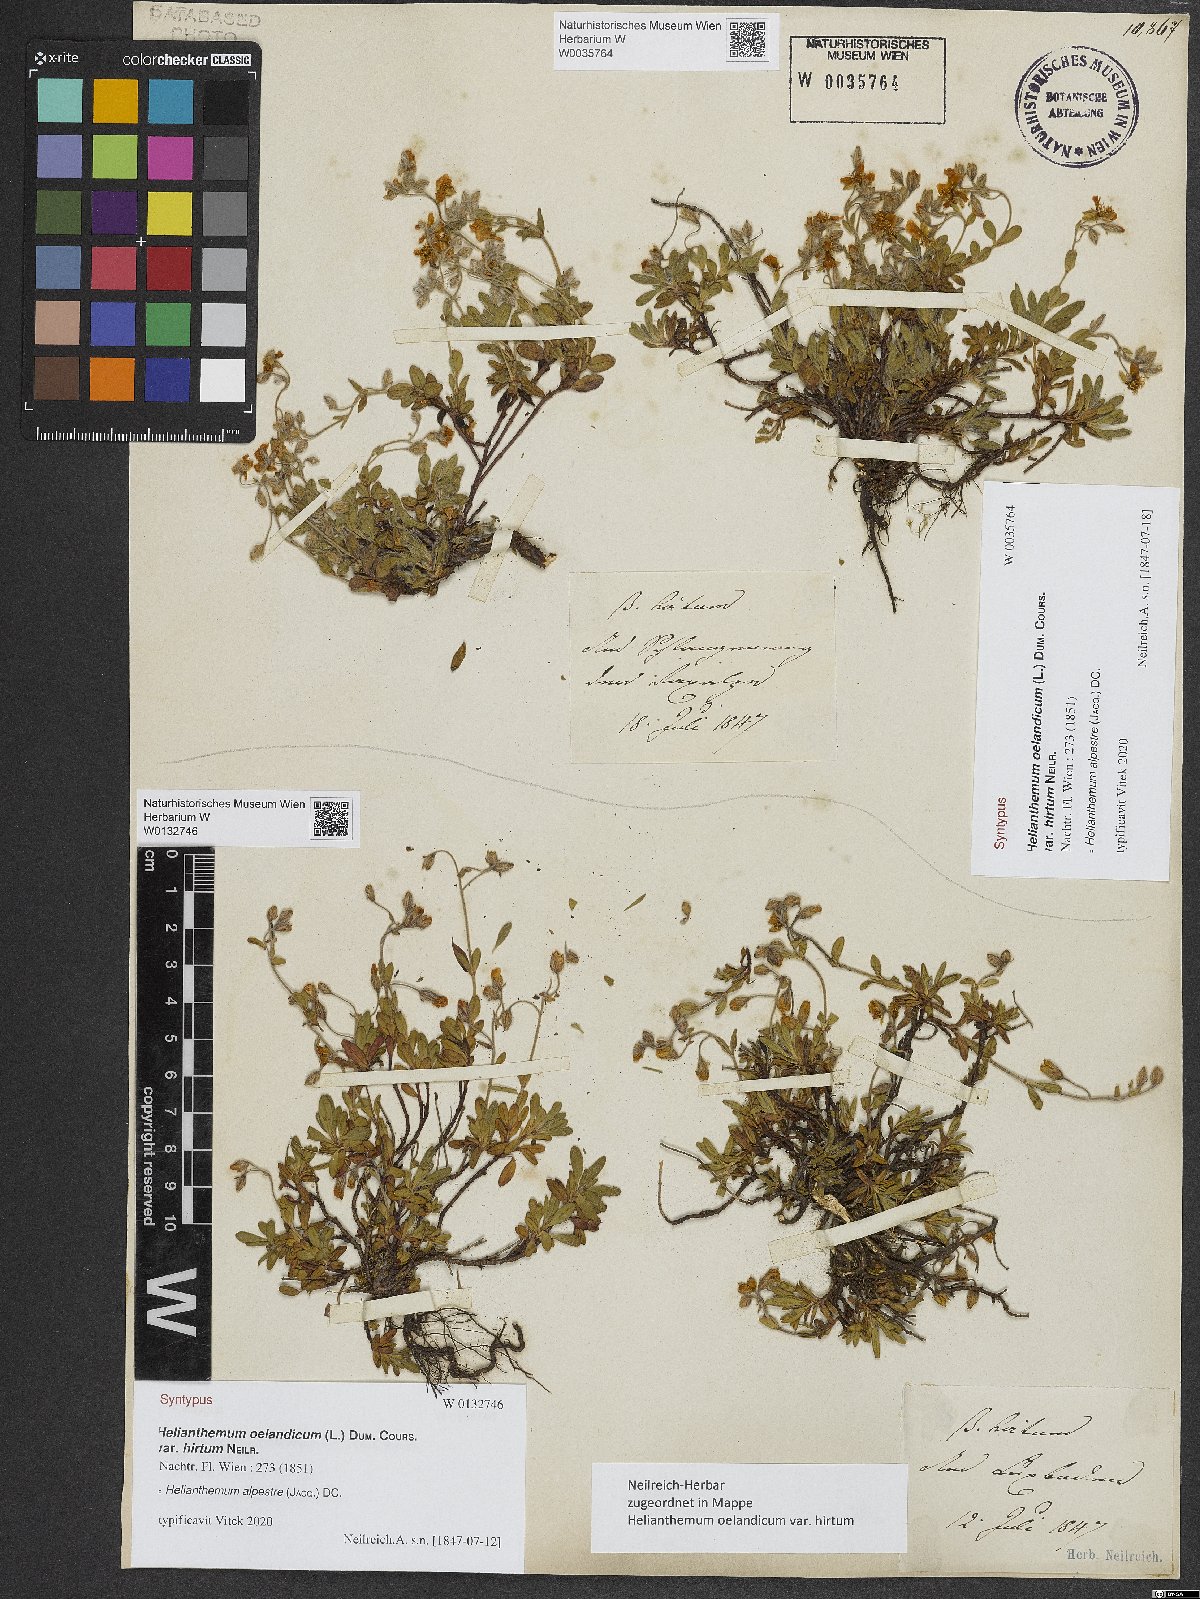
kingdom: Plantae
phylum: Tracheophyta
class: Magnoliopsida
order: Malvales
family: Cistaceae
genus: Helianthemum
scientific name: Helianthemum alpestre
